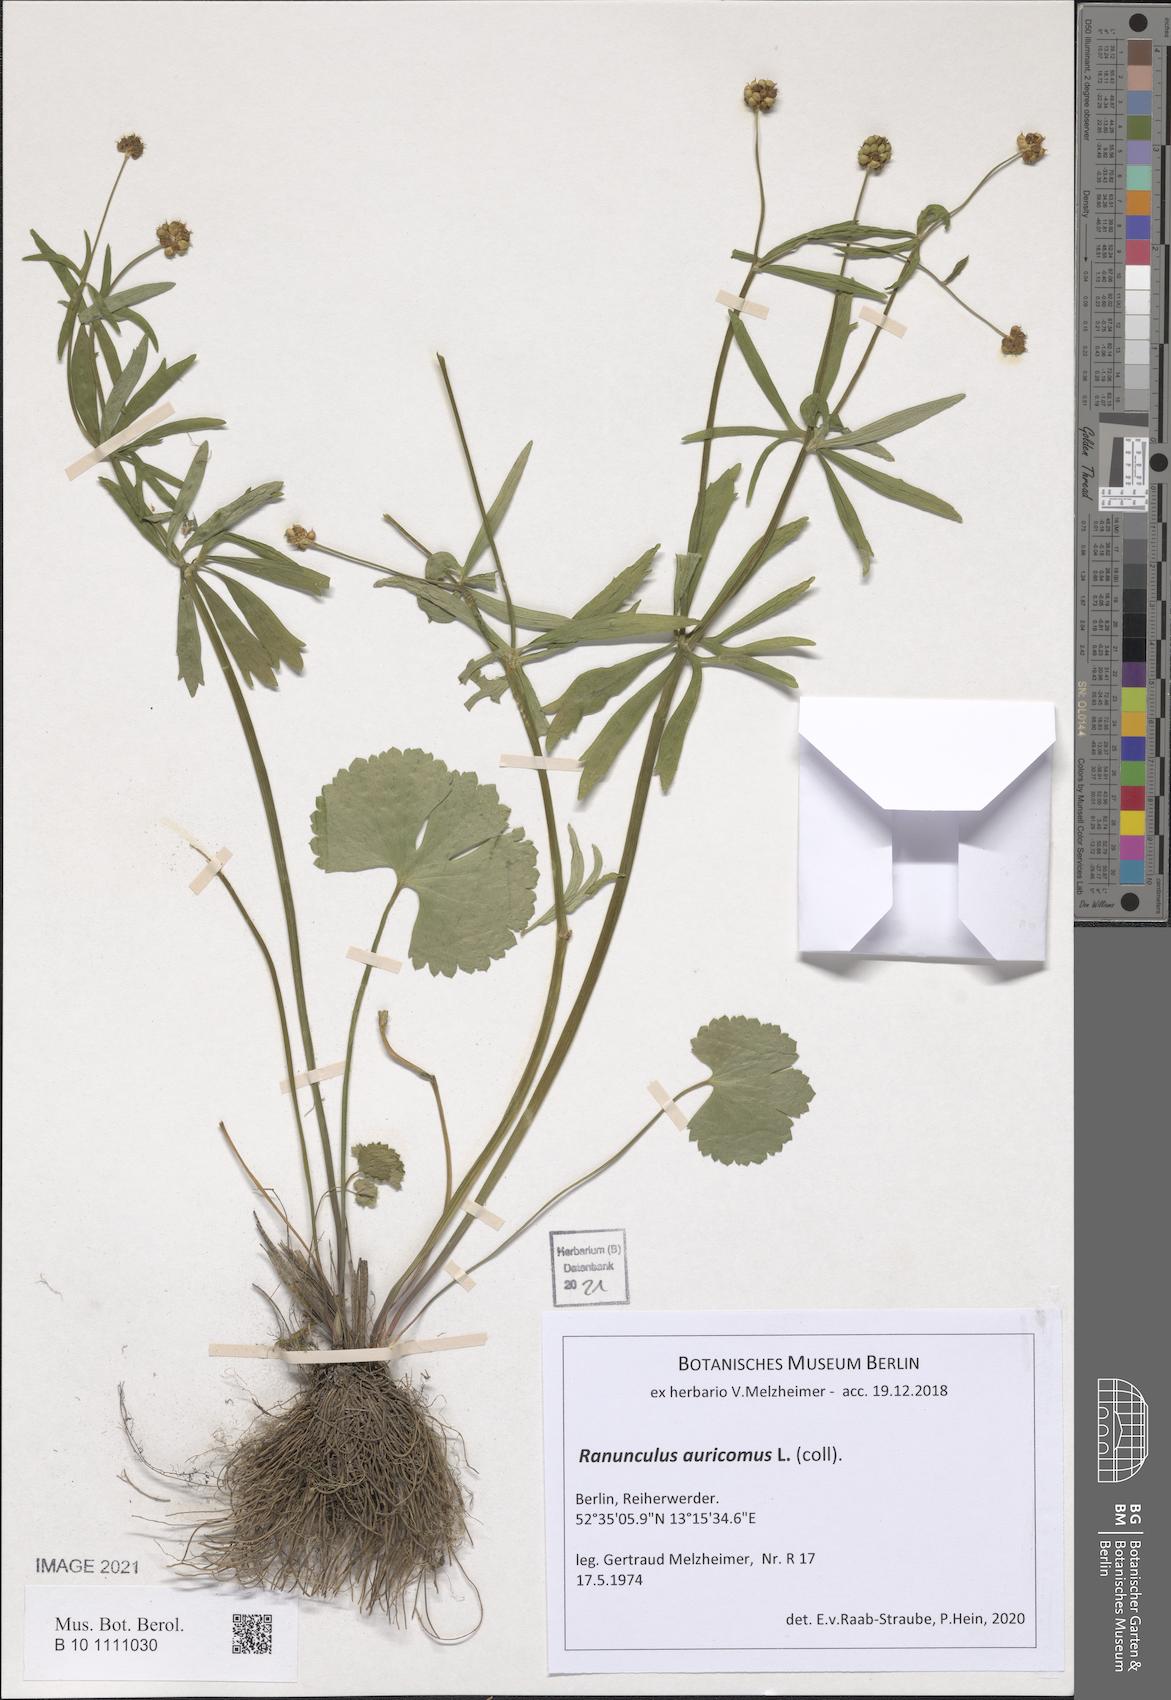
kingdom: Plantae
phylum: Tracheophyta
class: Magnoliopsida
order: Ranunculales
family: Ranunculaceae
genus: Ranunculus
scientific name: Ranunculus auricomus
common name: Goldilocks buttercup
